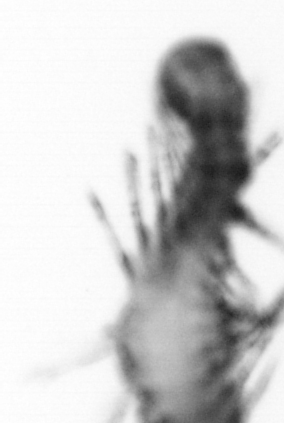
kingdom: Animalia
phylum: Annelida
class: Polychaeta
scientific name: Polychaeta
